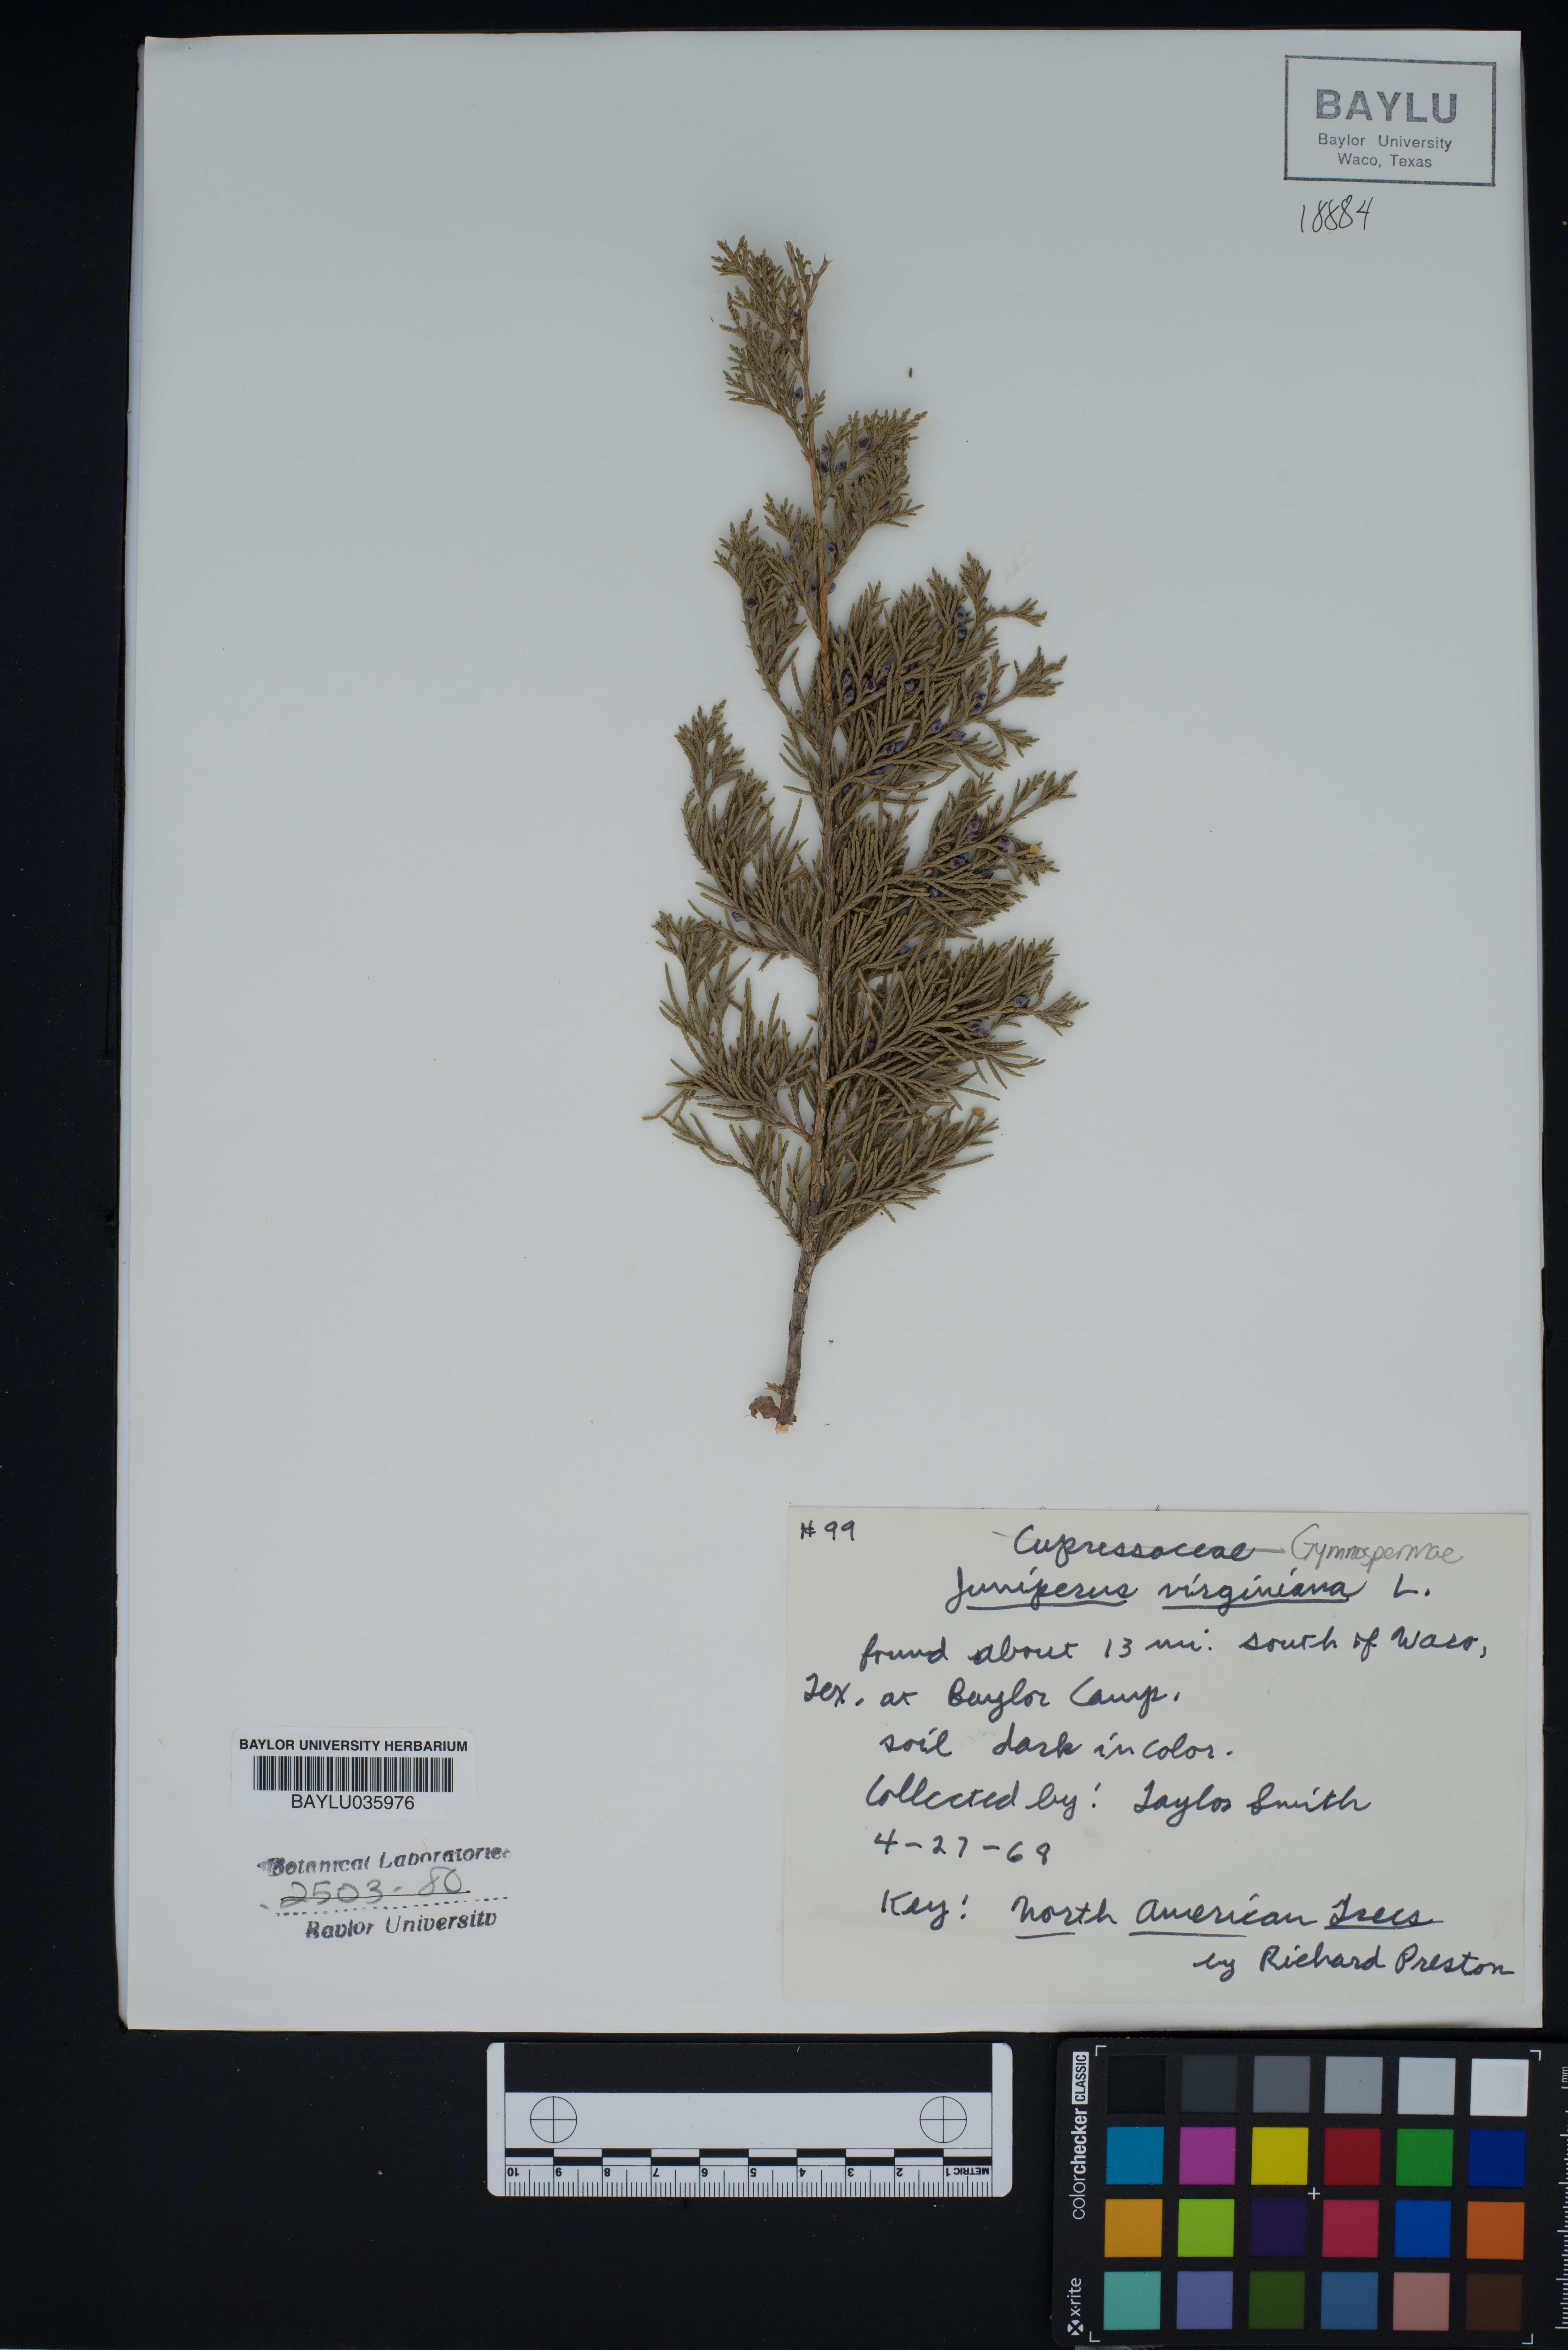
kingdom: Plantae
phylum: Tracheophyta
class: Pinopsida
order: Pinales
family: Cupressaceae
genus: Juniperus
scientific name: Juniperus virginiana
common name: Red juniper
